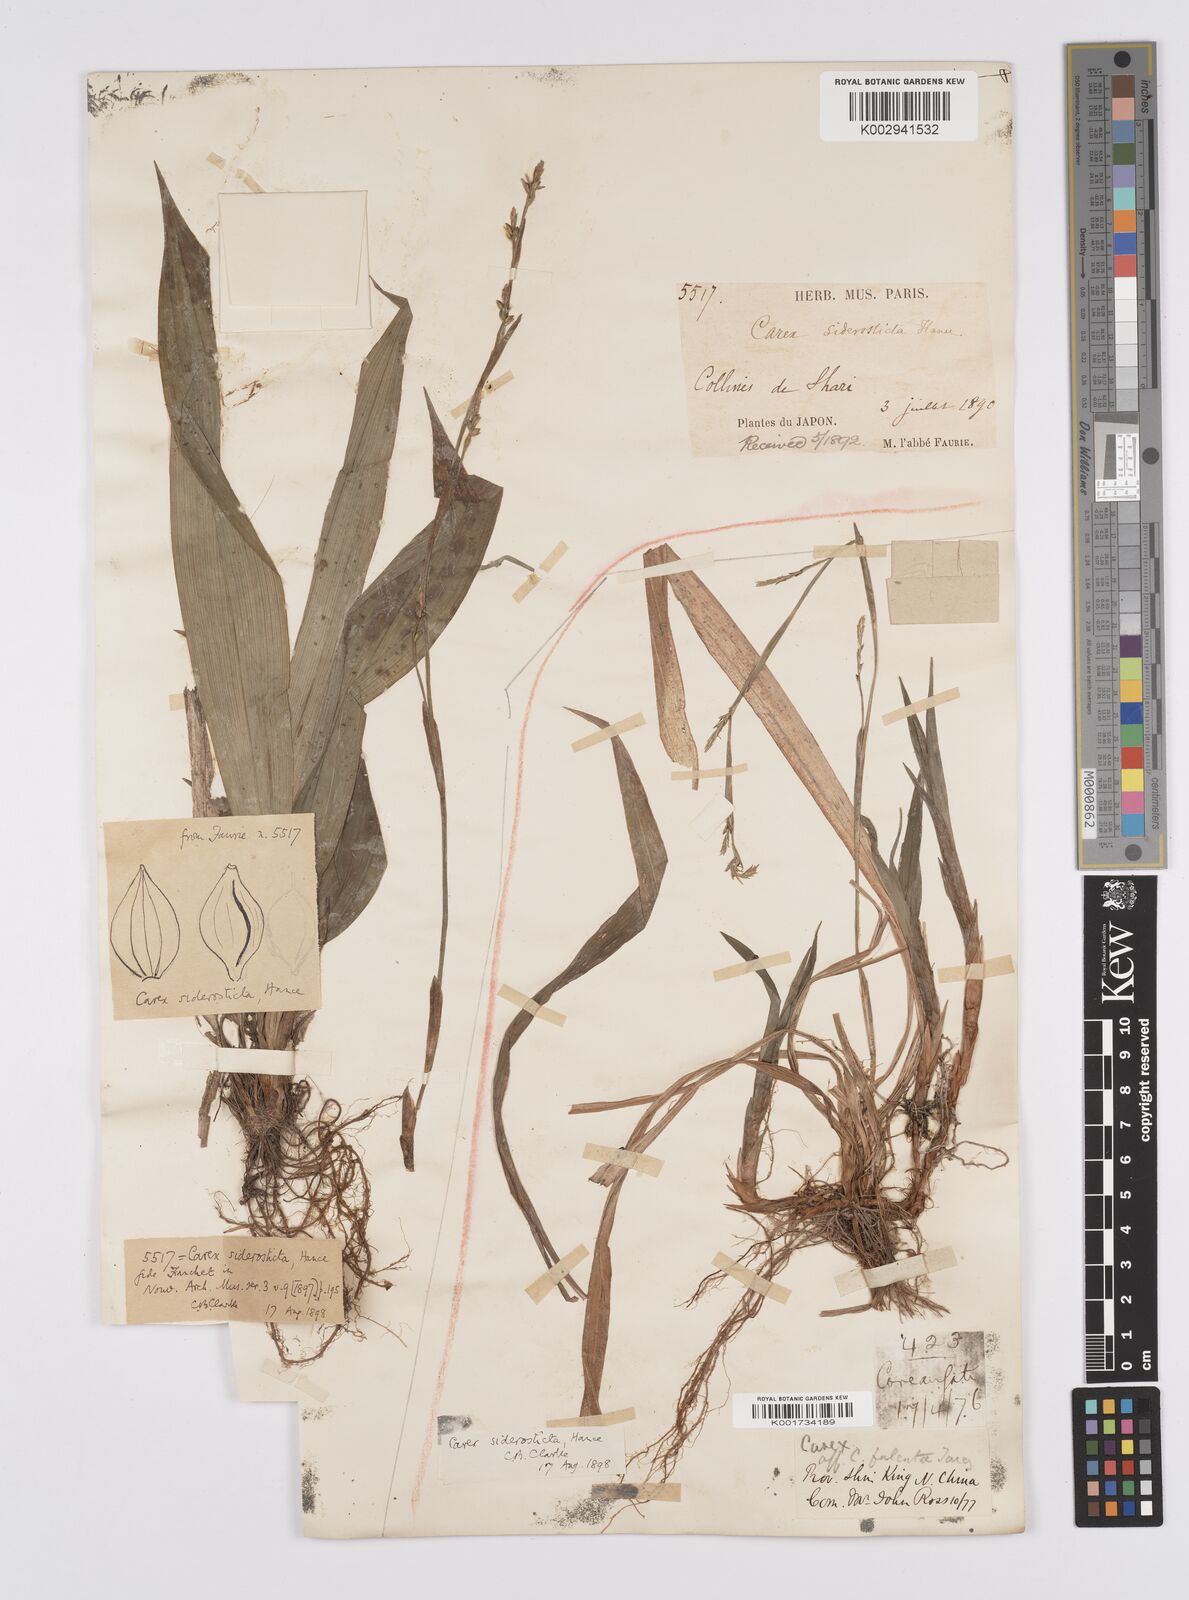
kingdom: Plantae
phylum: Tracheophyta
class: Liliopsida
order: Poales
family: Cyperaceae
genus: Carex
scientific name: Carex siderosticta
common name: Broadleaf sedge
